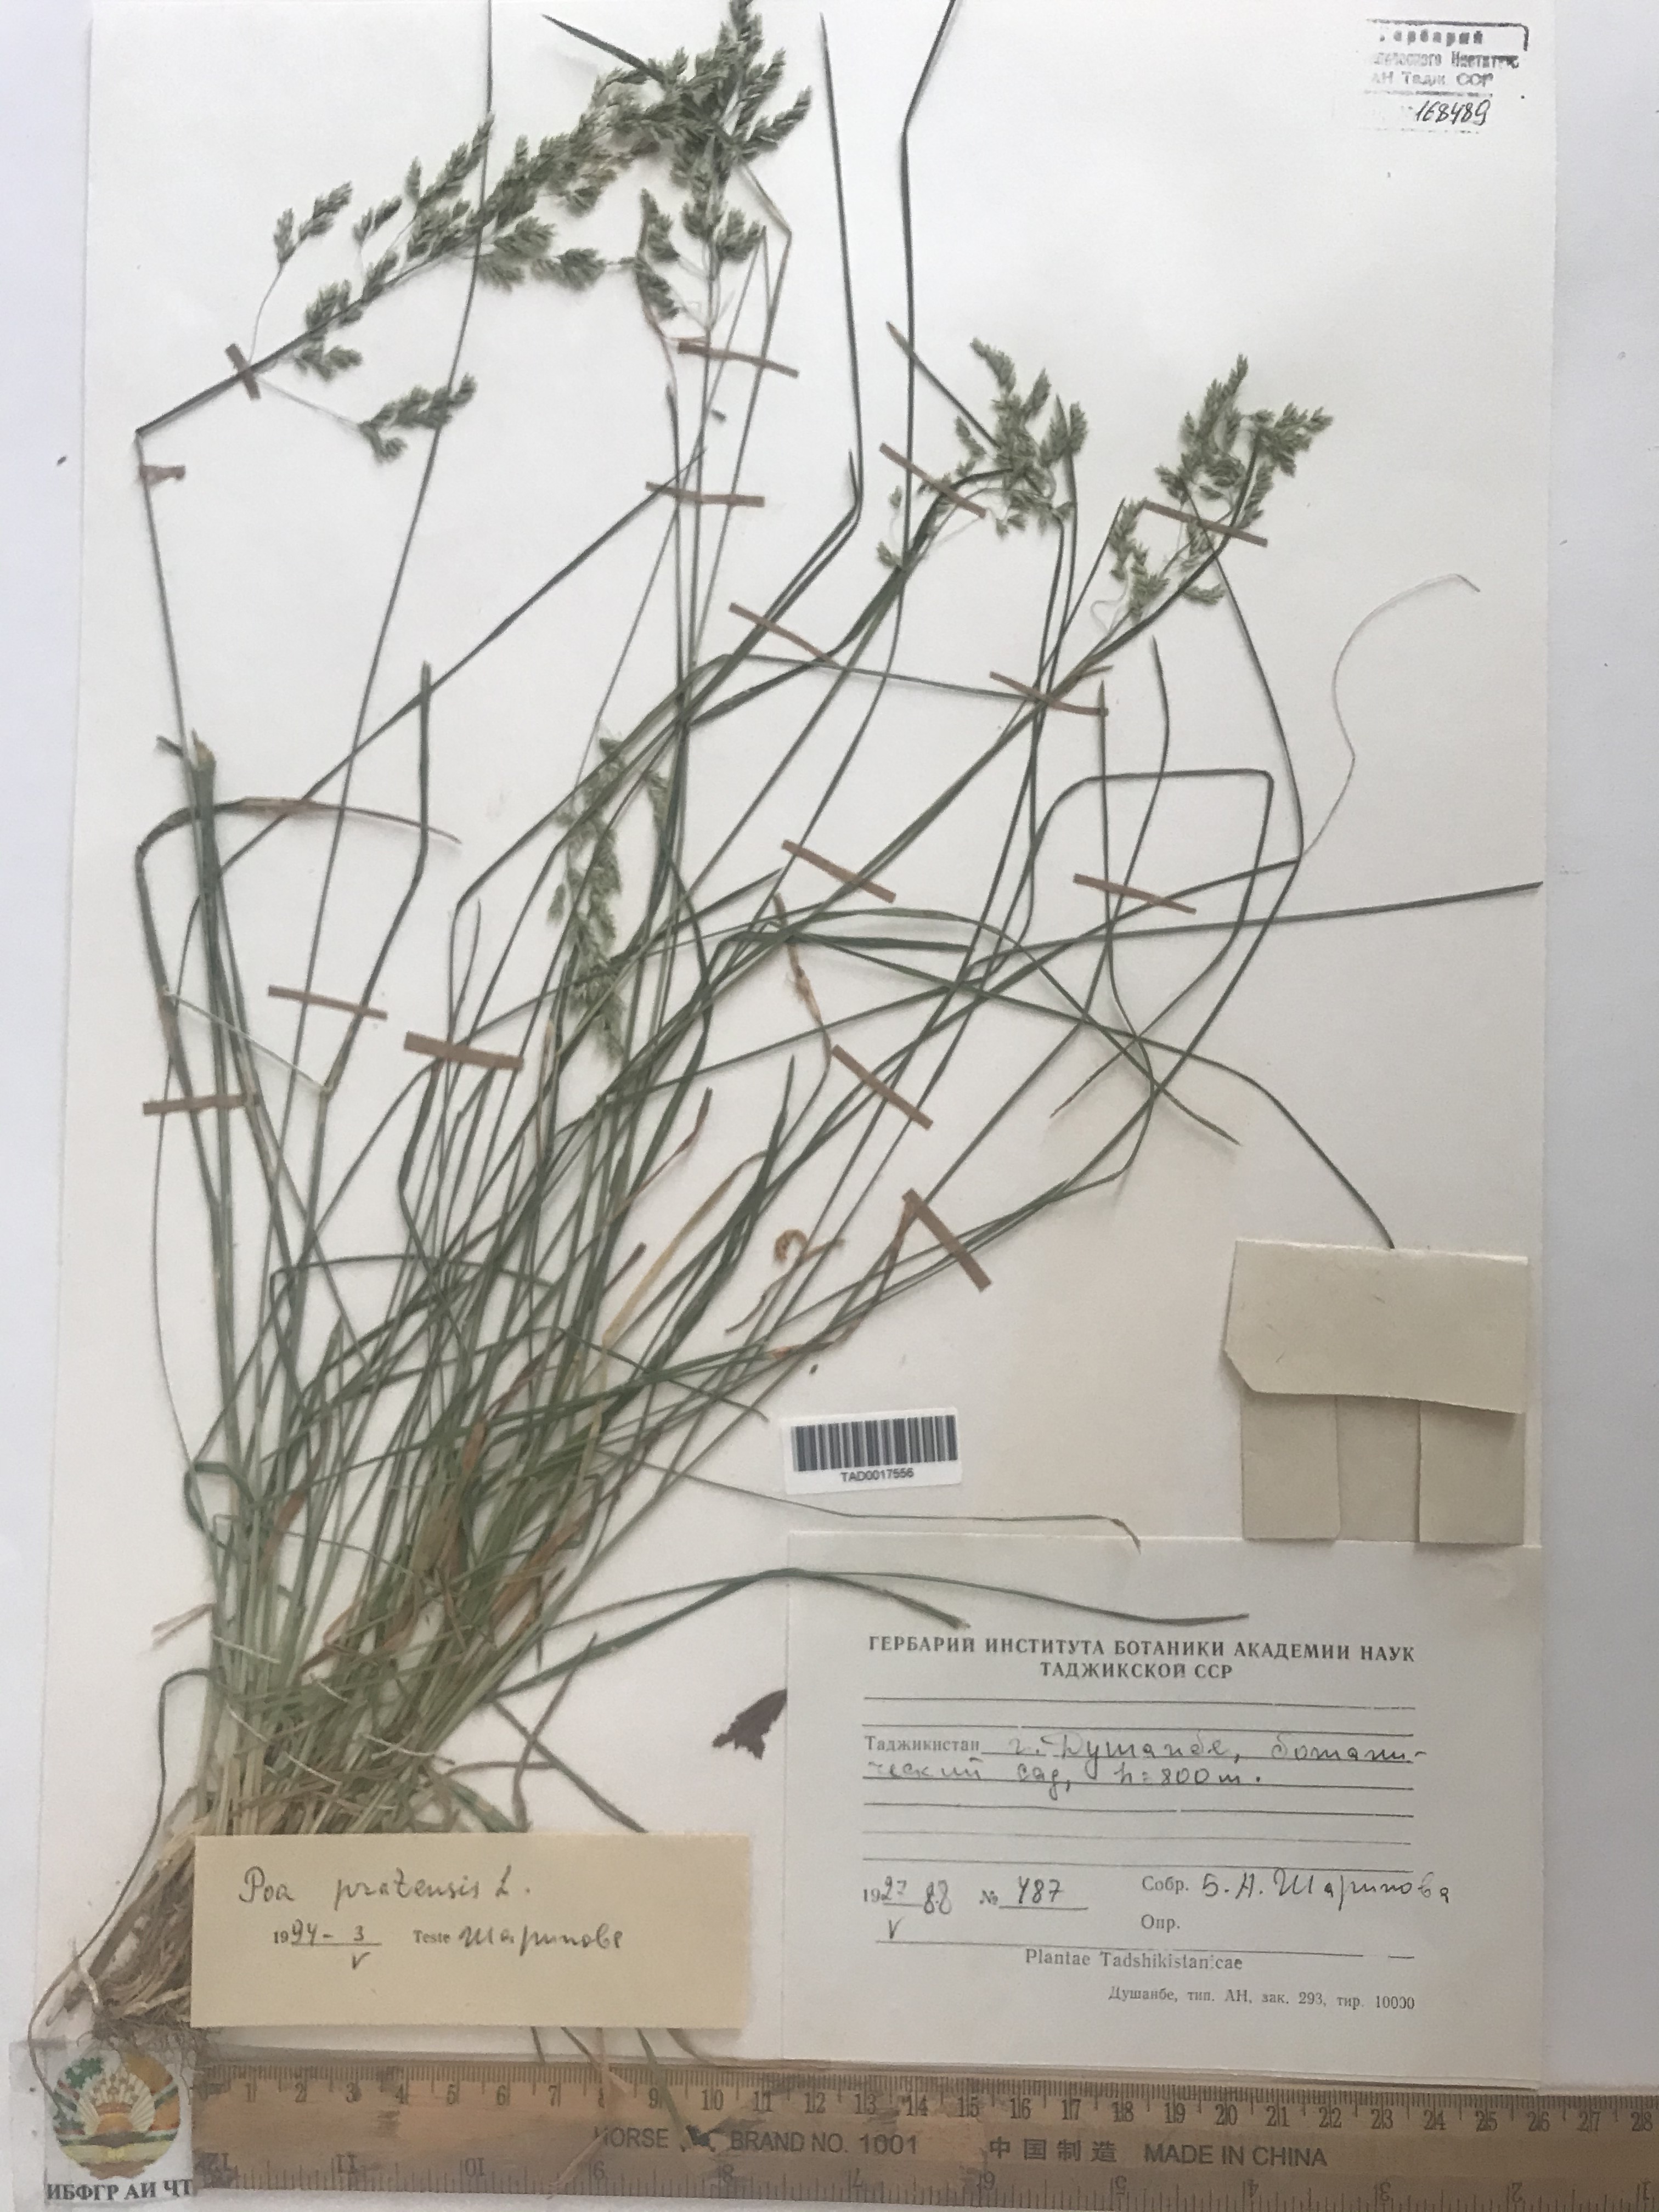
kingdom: Plantae
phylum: Tracheophyta
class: Liliopsida
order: Poales
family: Poaceae
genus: Poa
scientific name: Poa pratensis
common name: Kentucky bluegrass
